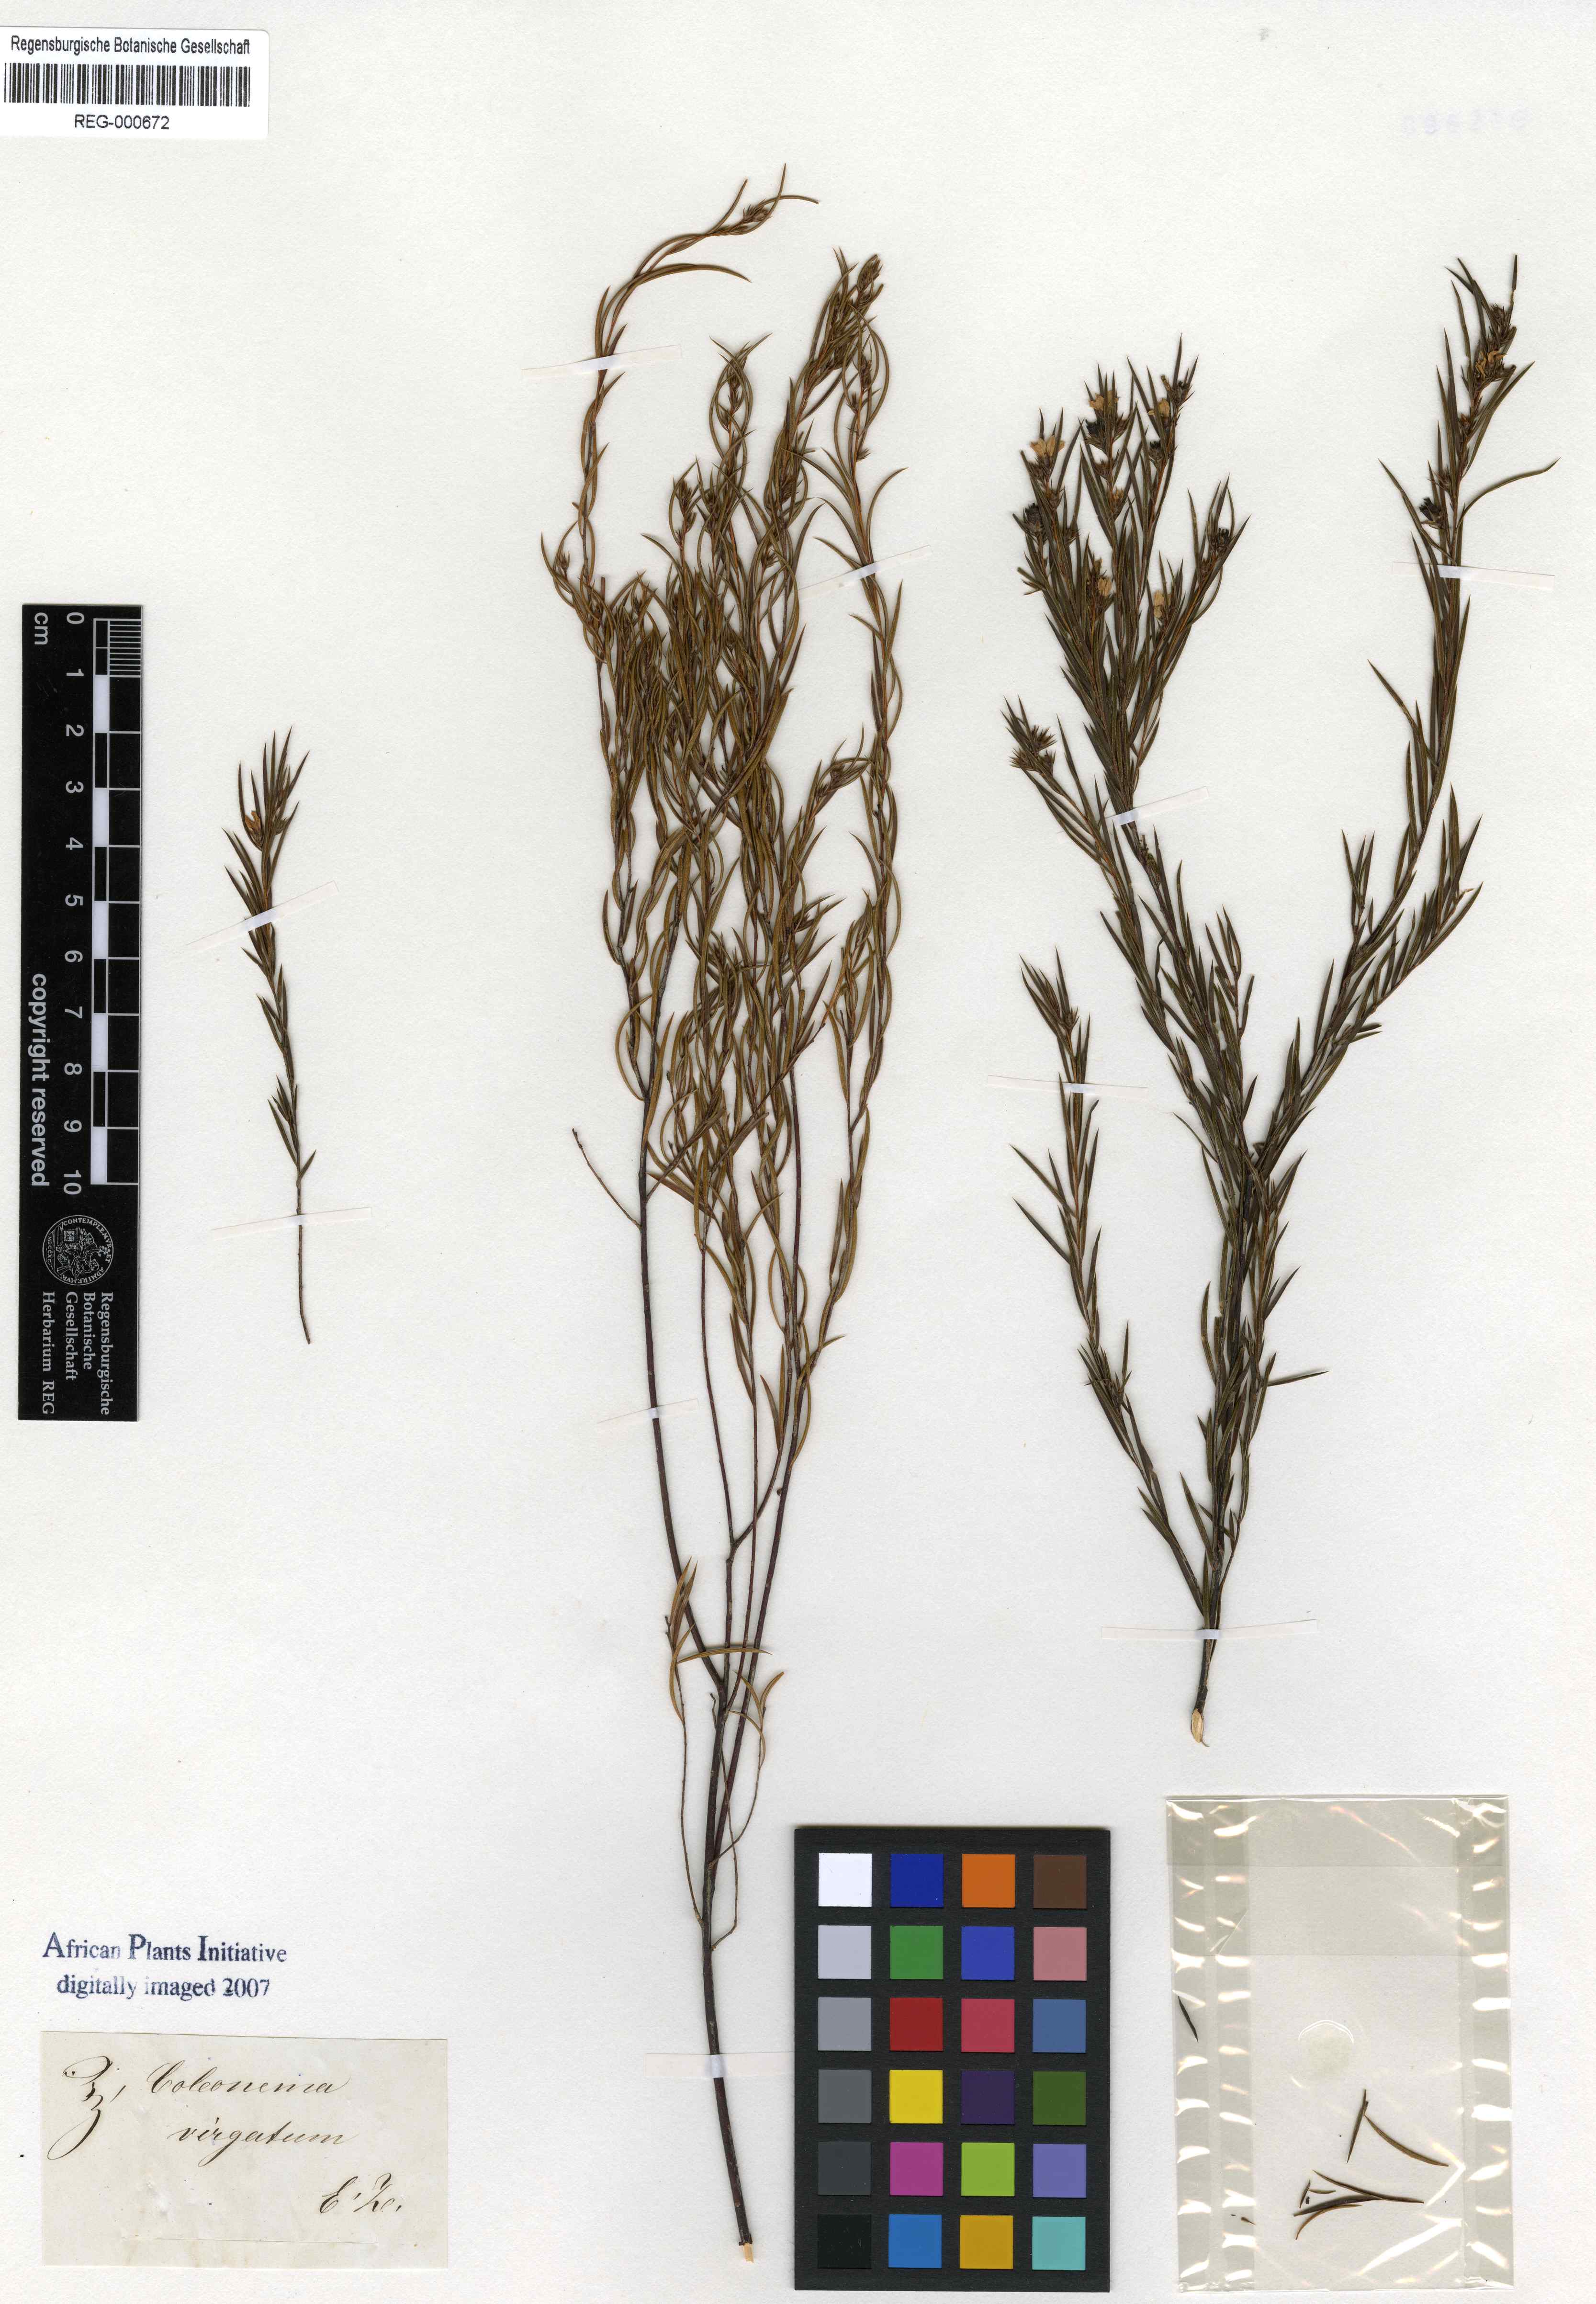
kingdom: Plantae
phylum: Tracheophyta
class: Magnoliopsida
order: Sapindales
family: Rutaceae
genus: Coleonema
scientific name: Coleonema virgatum
